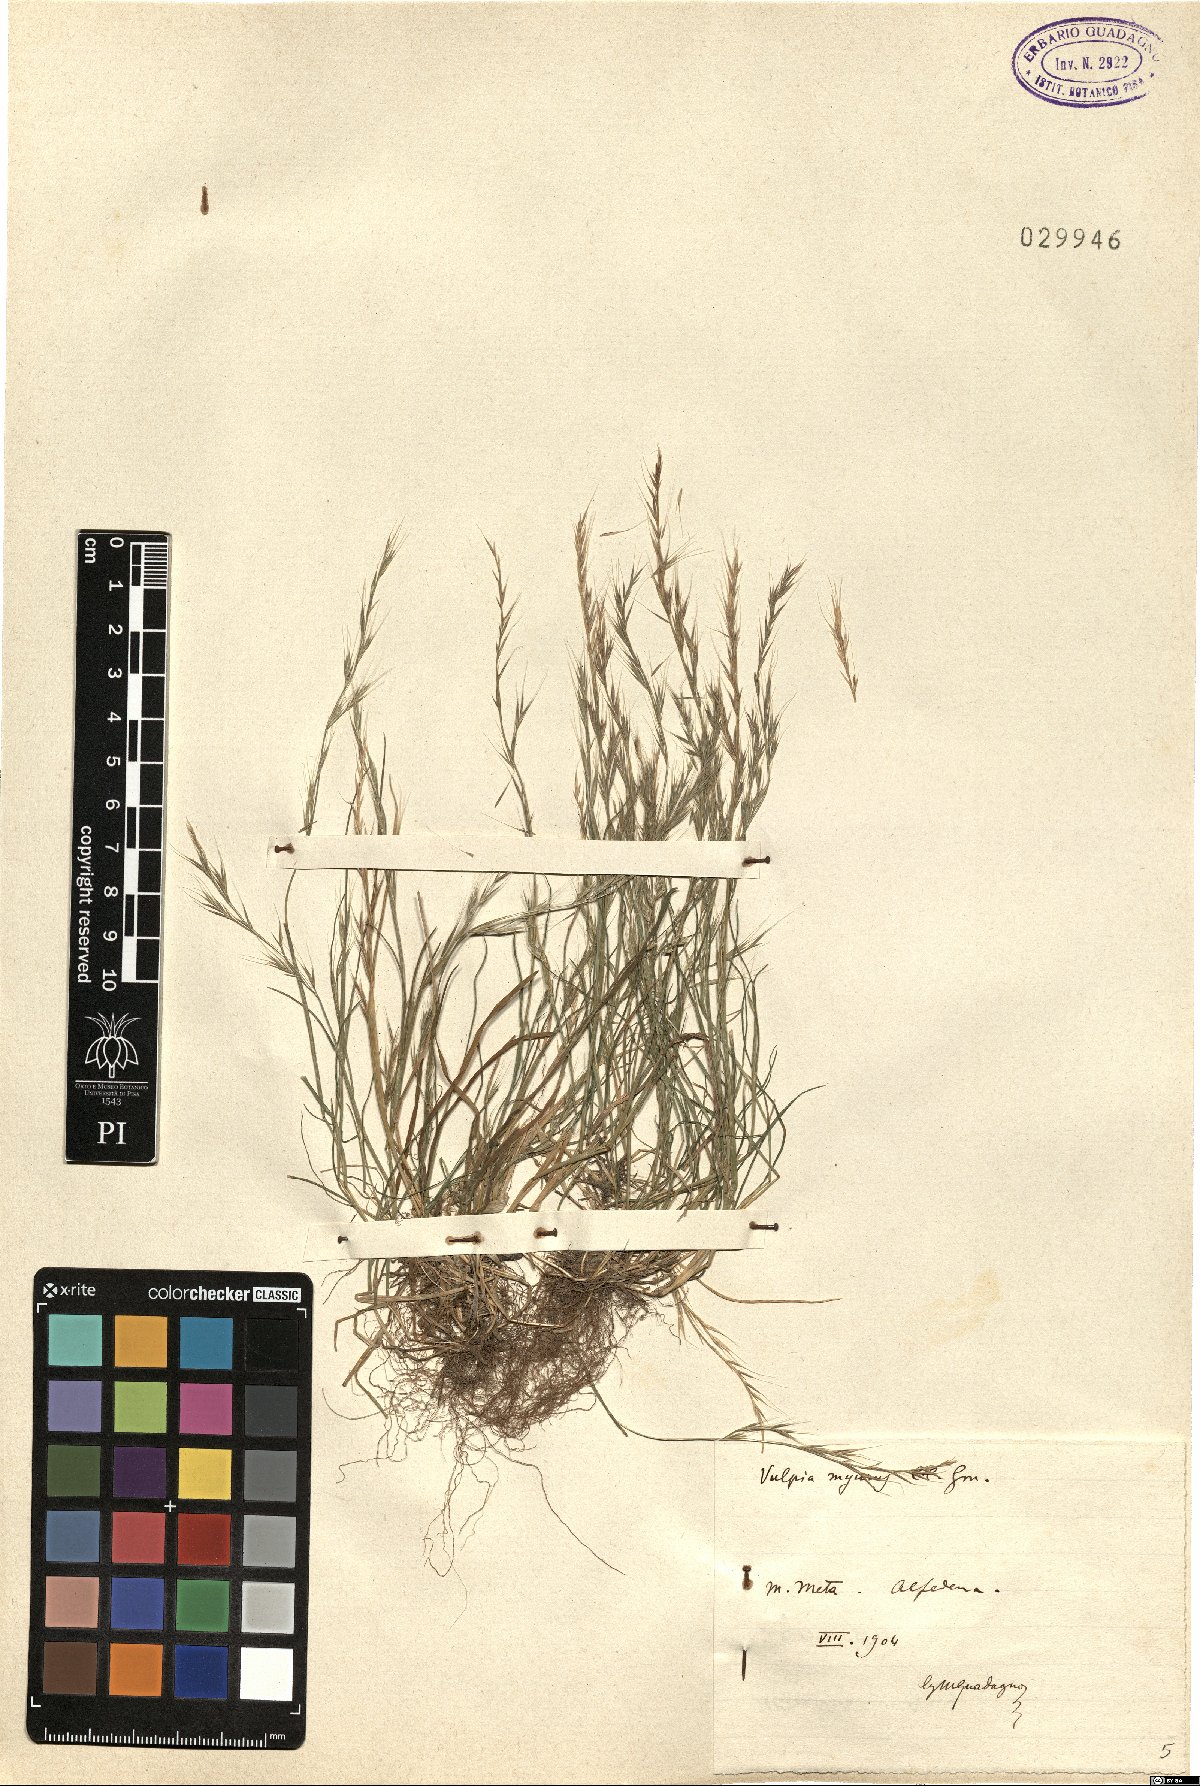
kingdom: Plantae
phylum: Tracheophyta
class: Liliopsida
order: Poales
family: Poaceae
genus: Festuca
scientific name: Festuca myuros
